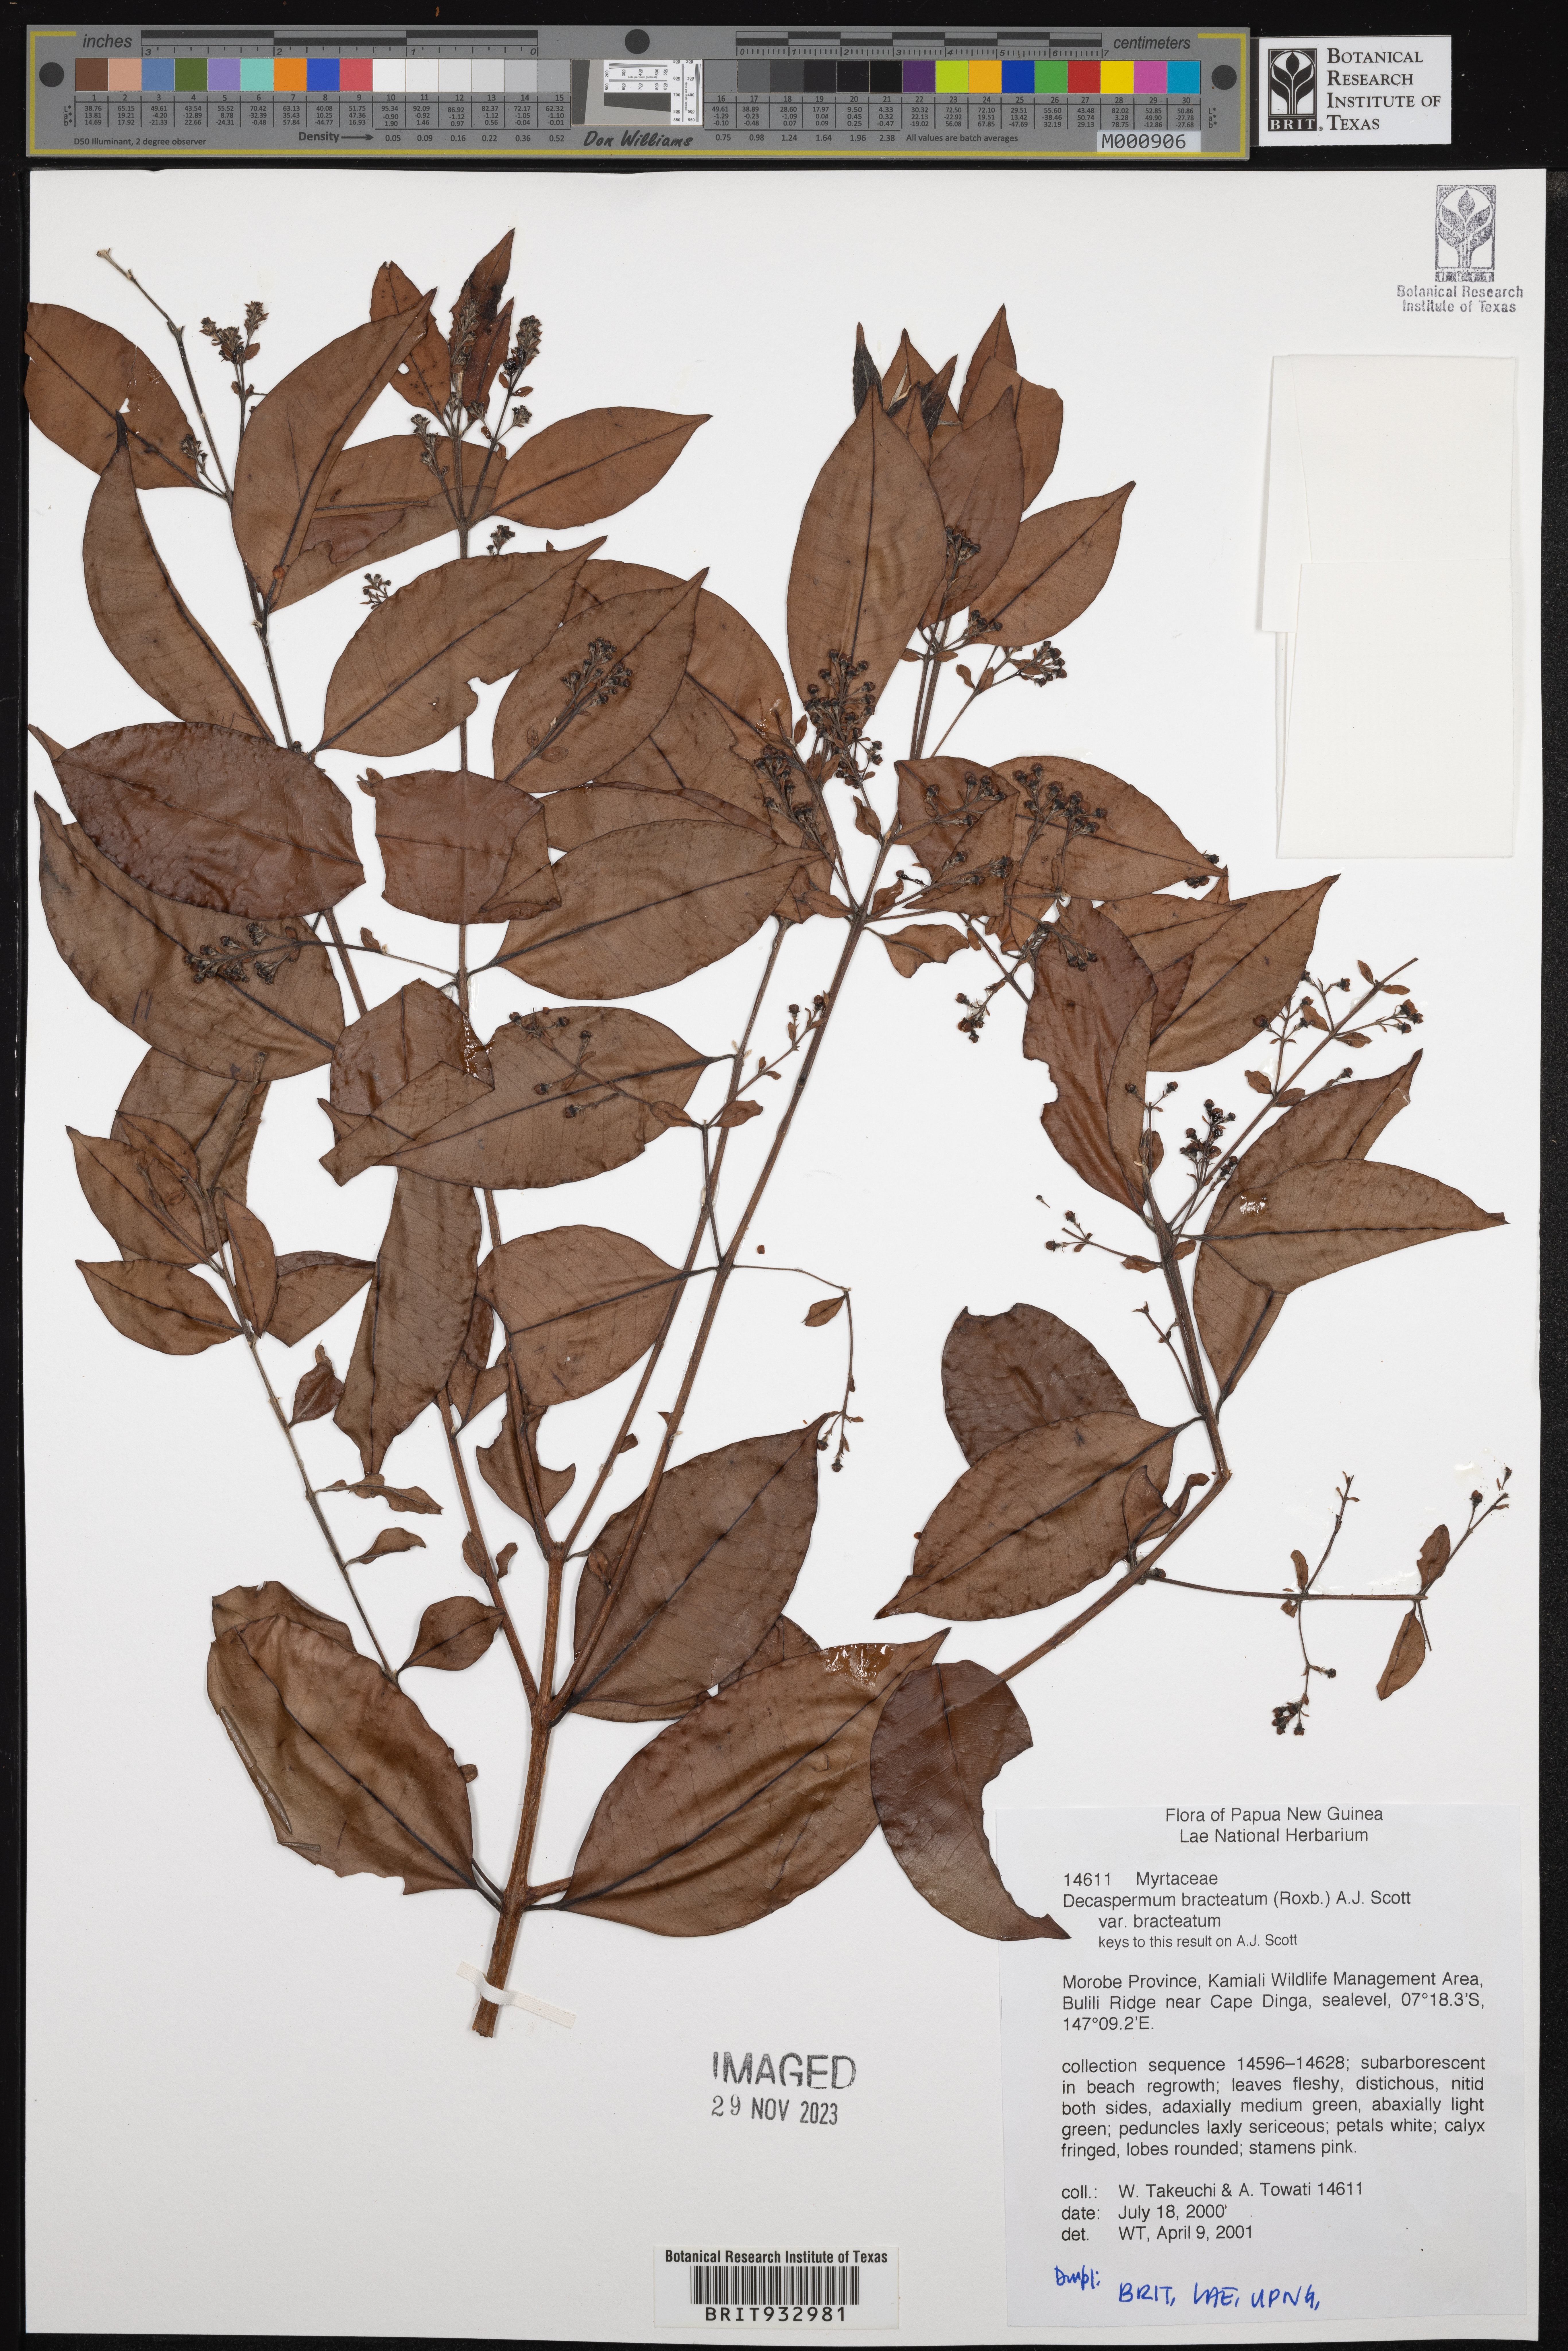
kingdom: Plantae
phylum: Tracheophyta
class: Magnoliopsida
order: Myrtales
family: Myrtaceae
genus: Decaspermum
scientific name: Decaspermum
